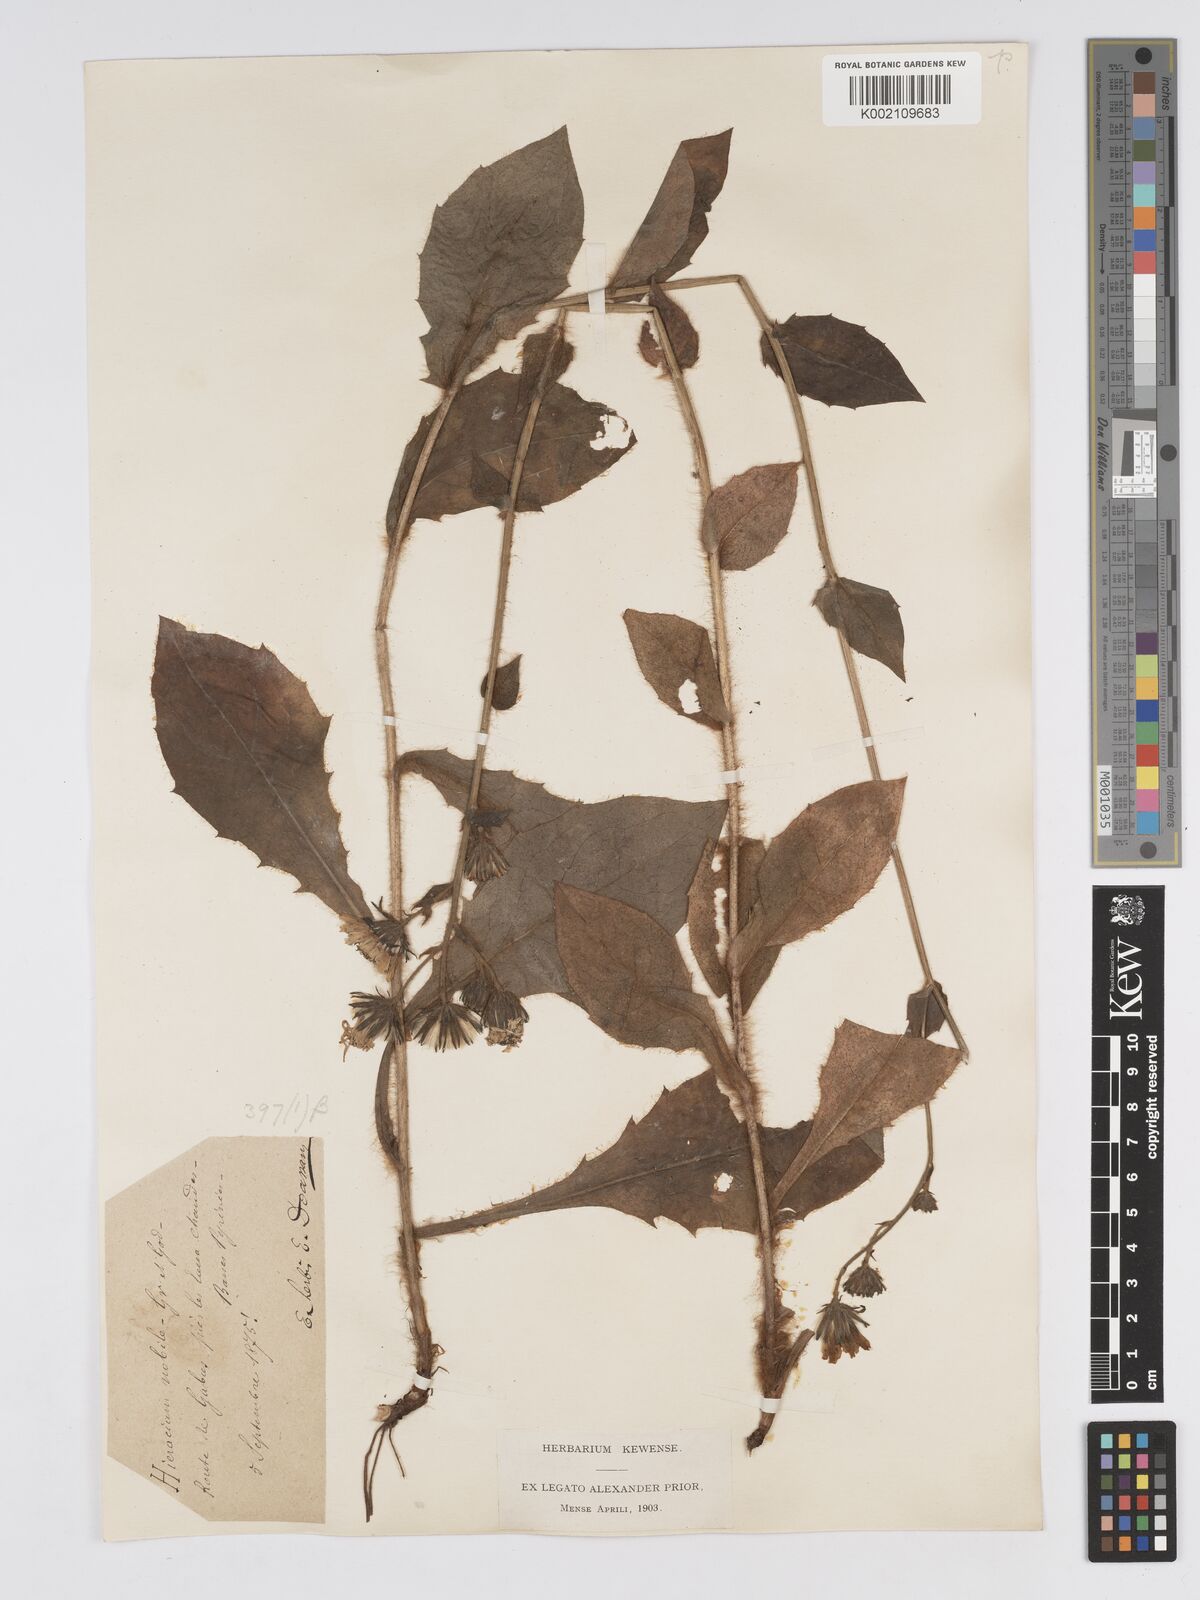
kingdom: Plantae
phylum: Tracheophyta
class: Magnoliopsida
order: Asterales
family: Asteraceae
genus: Hieracium
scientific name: Hieracium nobile
